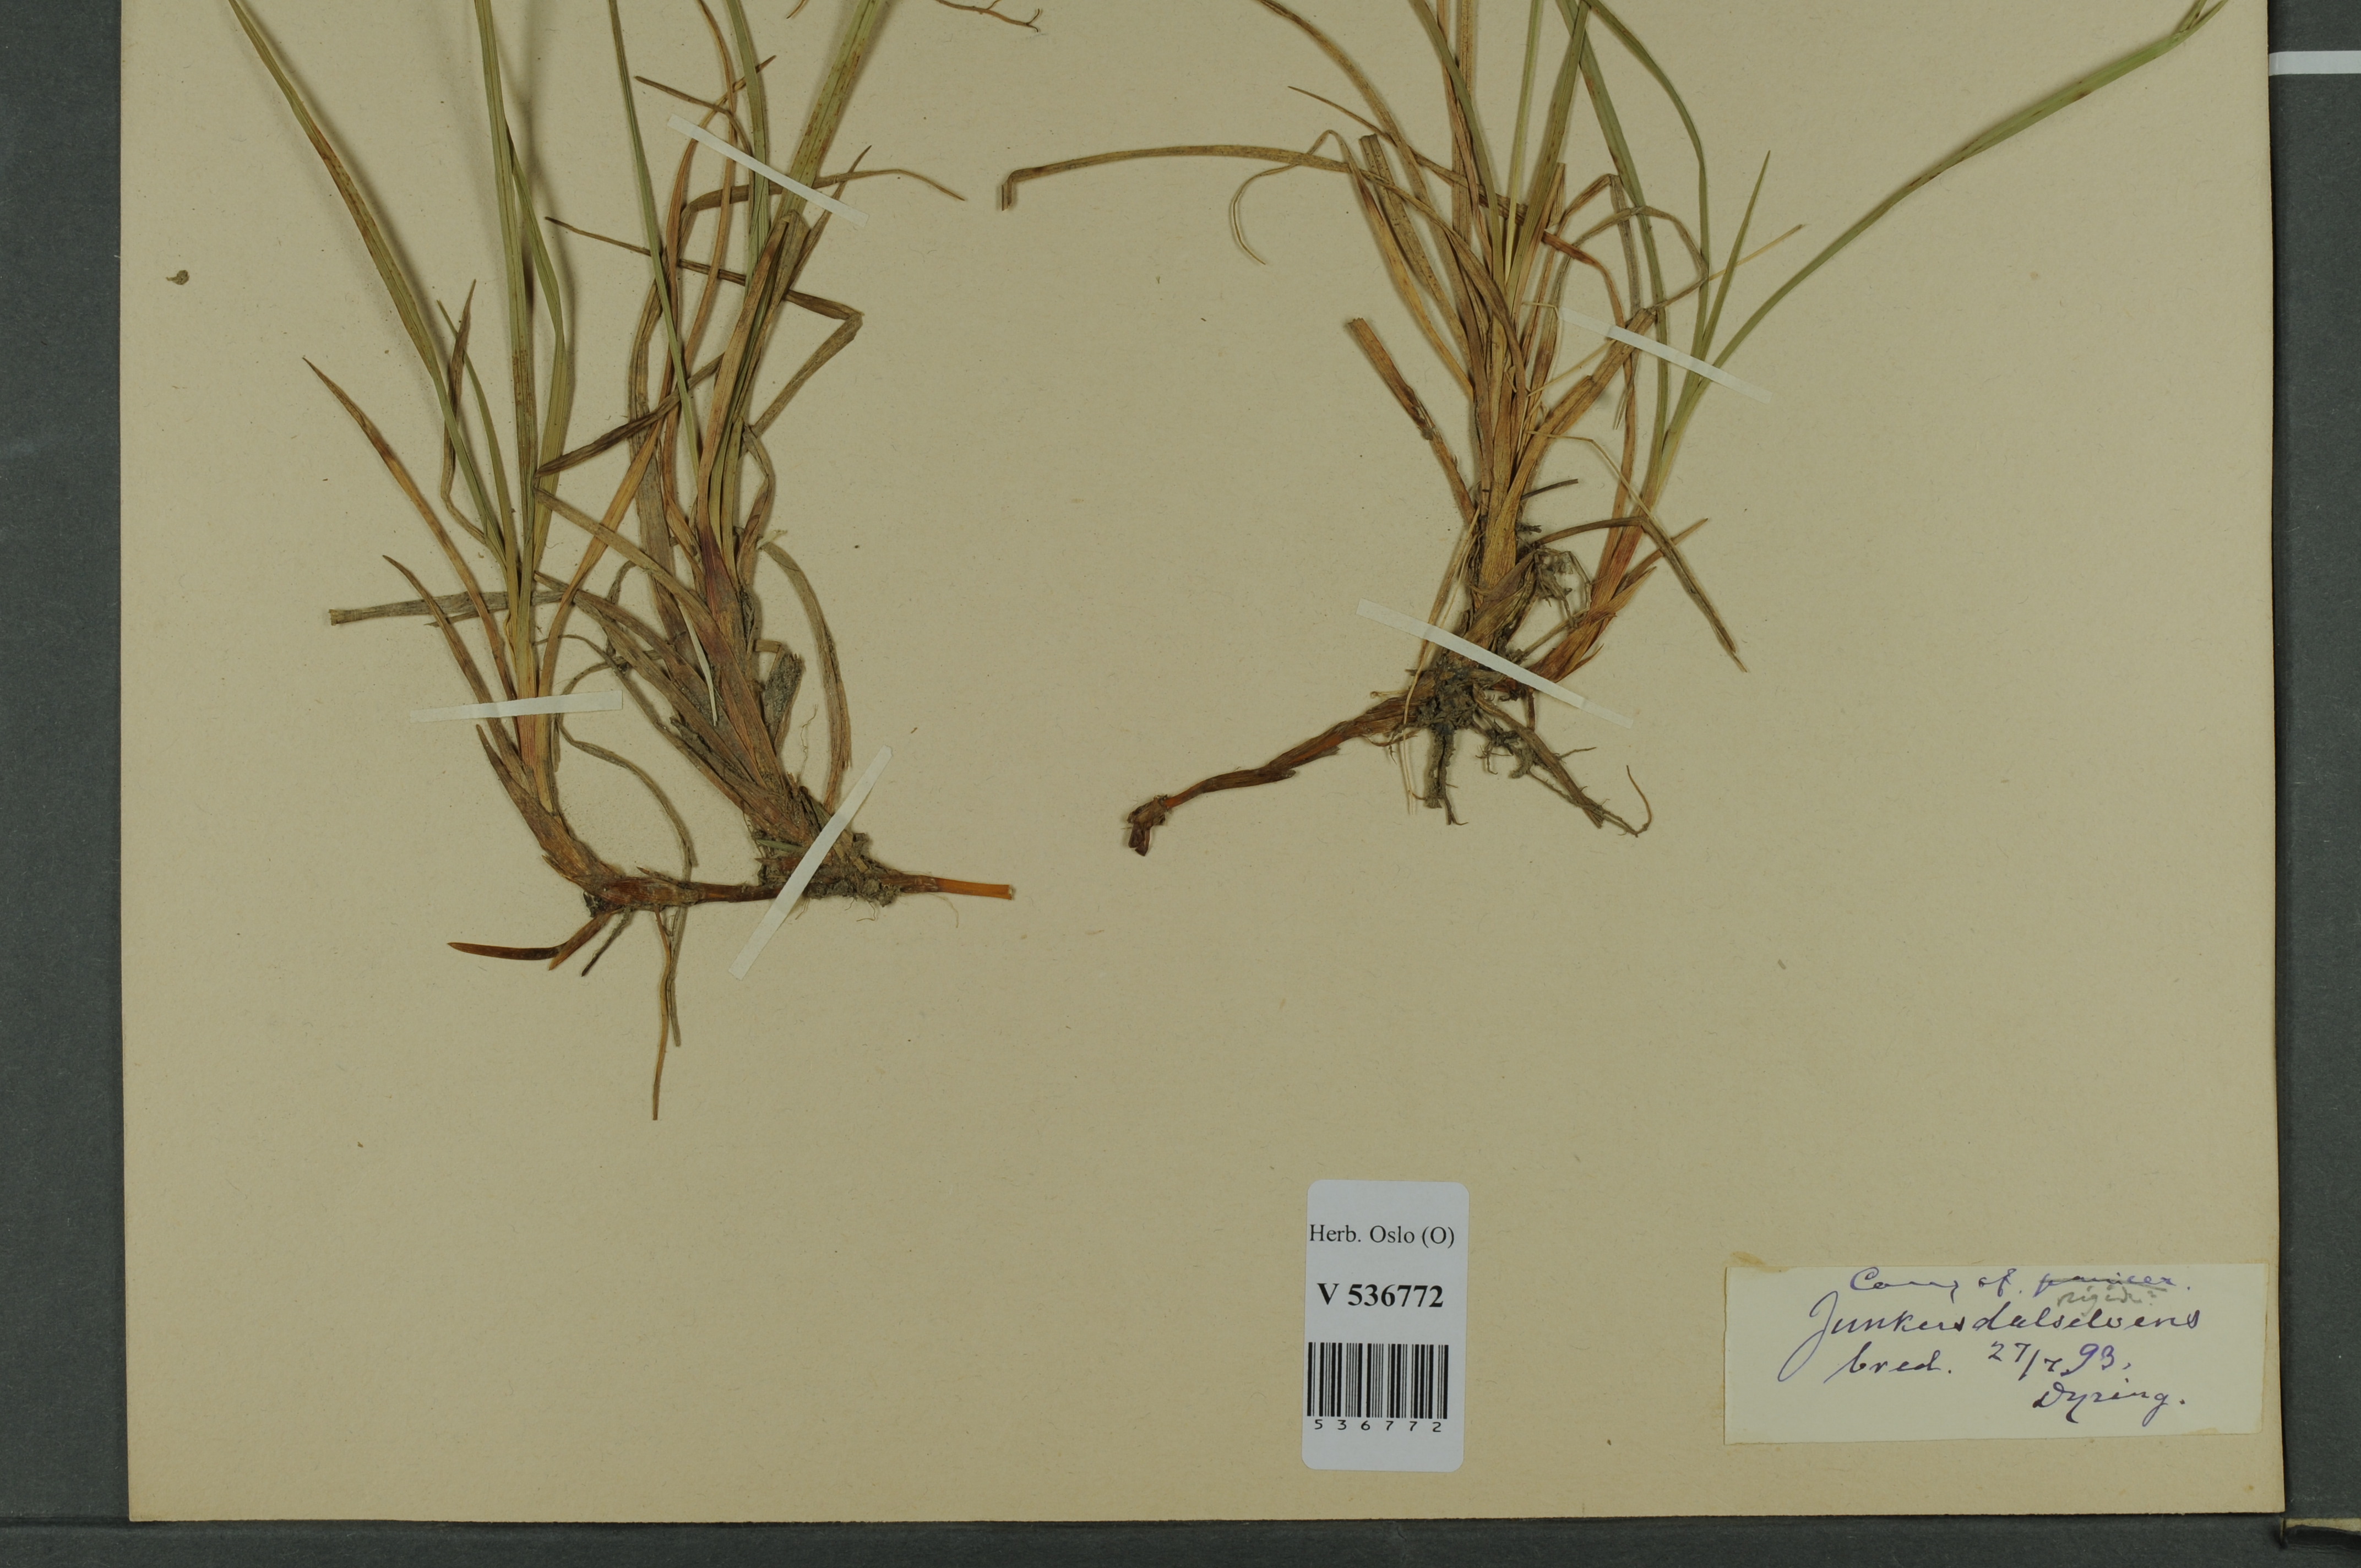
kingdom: Plantae
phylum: Tracheophyta
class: Liliopsida
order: Poales
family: Cyperaceae
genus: Carex
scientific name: Carex dacica
